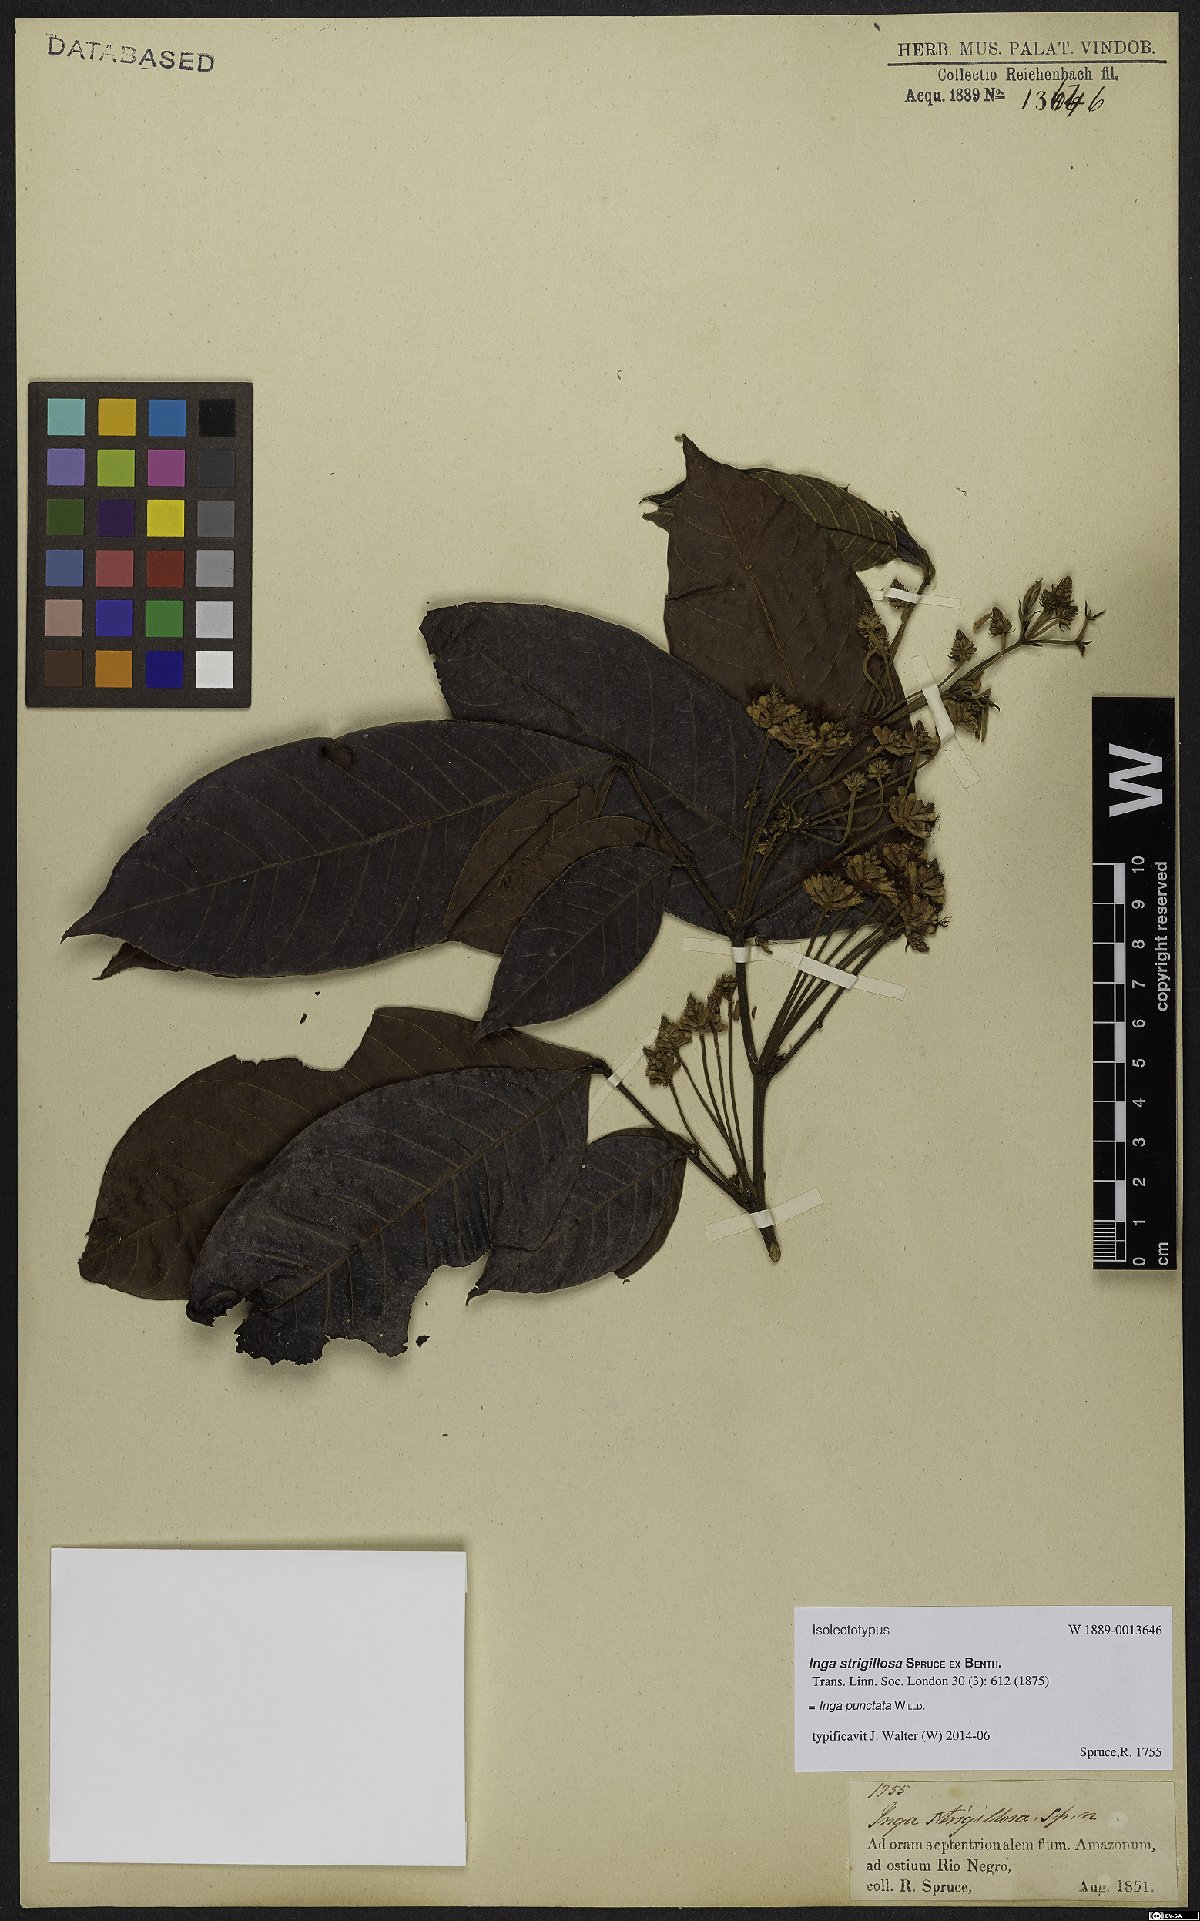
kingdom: Plantae
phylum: Tracheophyta
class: Magnoliopsida
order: Fabales
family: Fabaceae
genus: Inga
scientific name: Inga punctata
